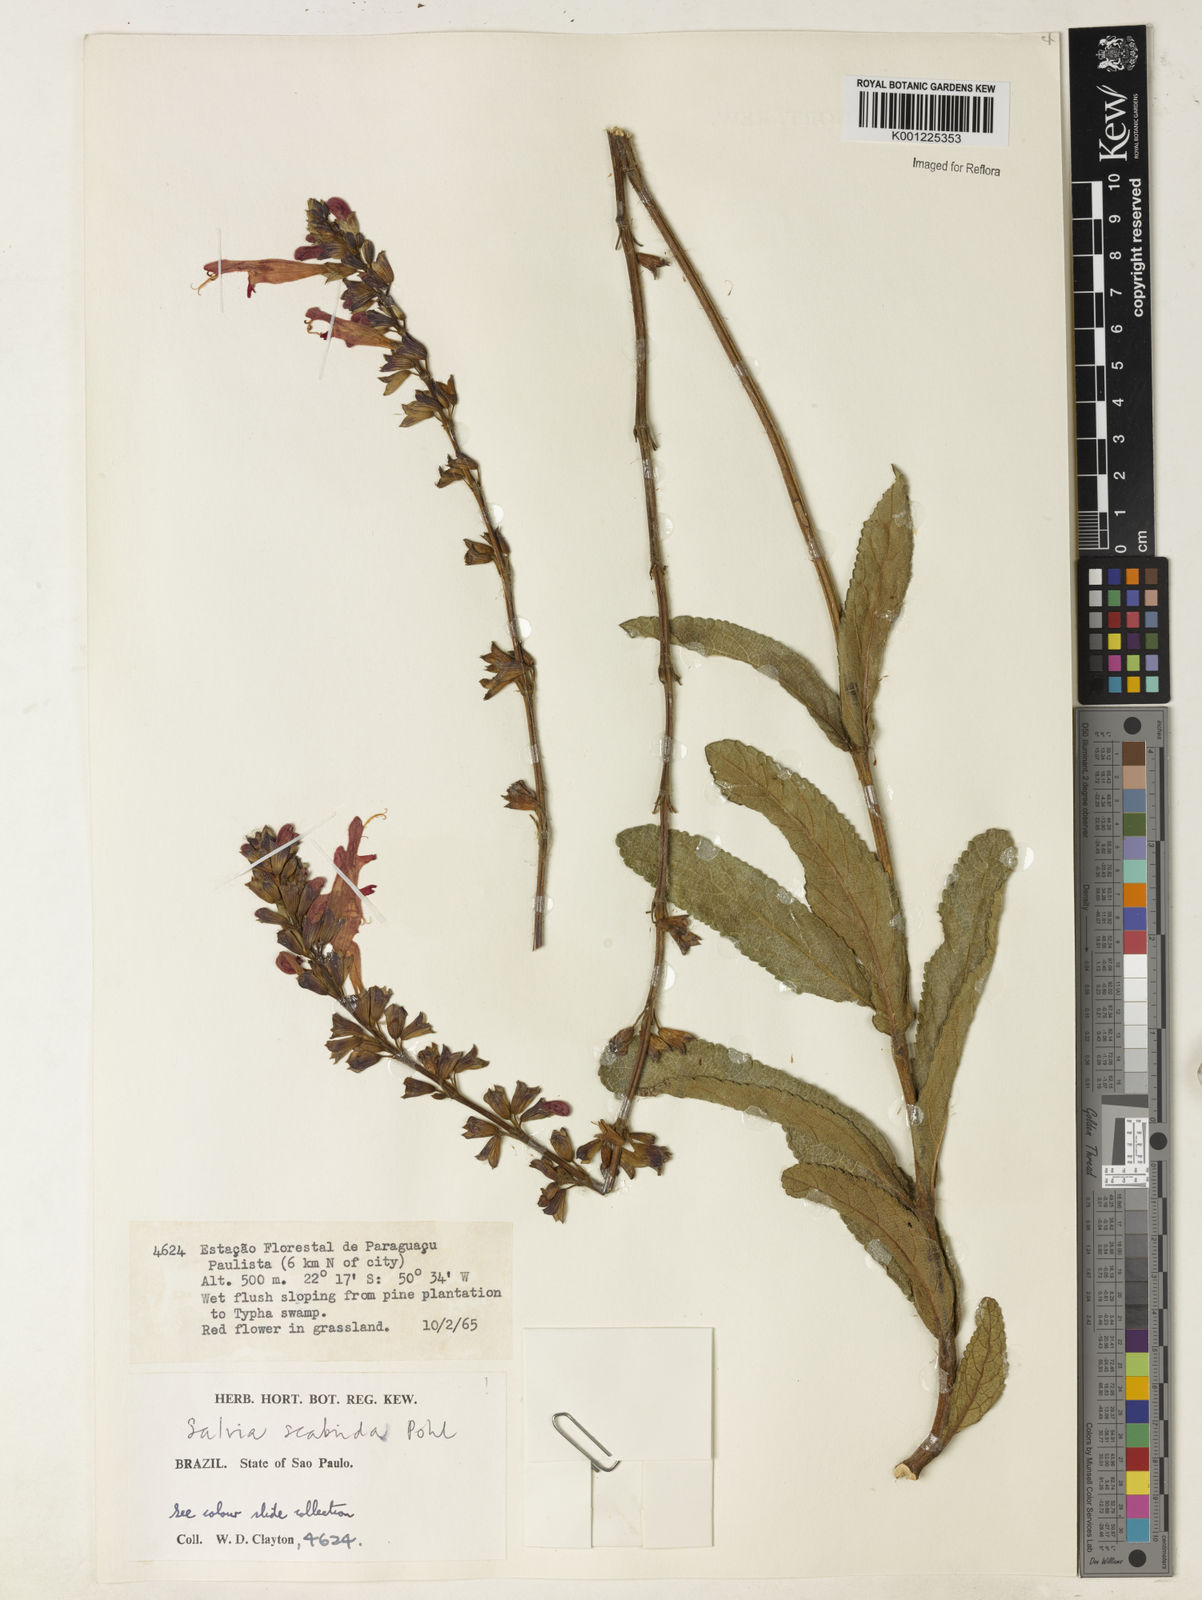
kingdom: Plantae
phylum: Tracheophyta
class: Magnoliopsida
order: Lamiales
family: Lamiaceae
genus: Salvia
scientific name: Salvia scabrida
